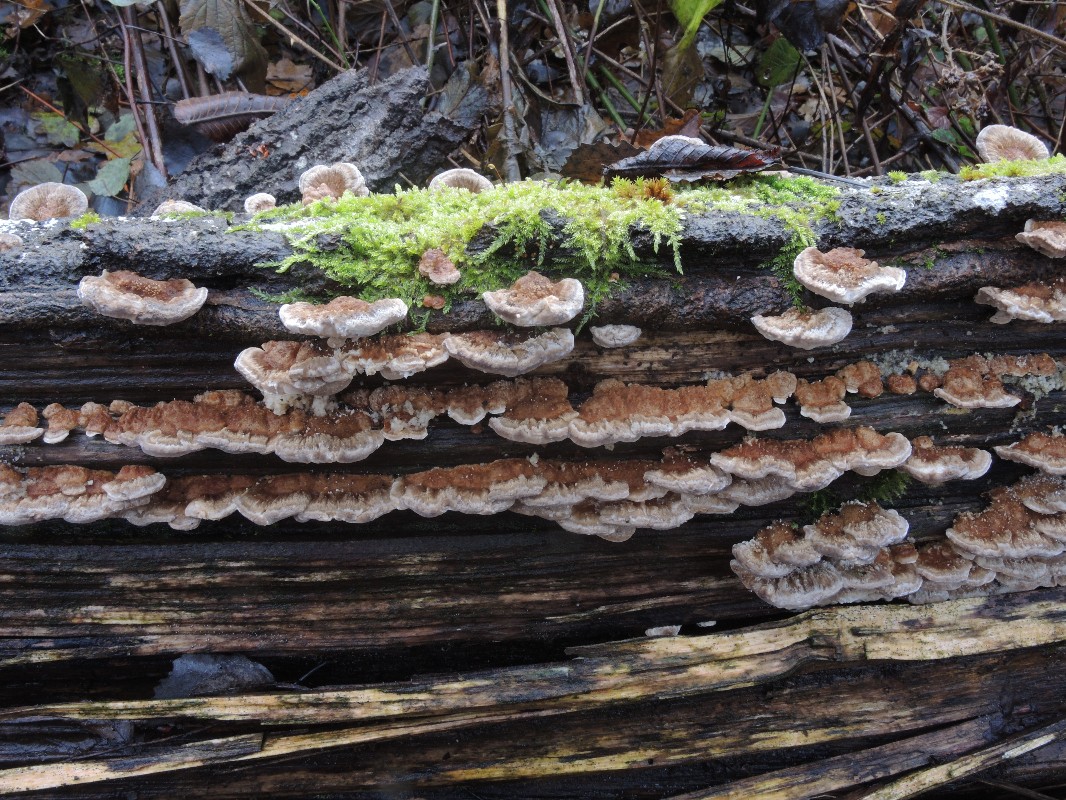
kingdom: Fungi
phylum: Basidiomycota
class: Agaricomycetes
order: Polyporales
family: Polyporaceae
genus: Trametes
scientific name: Trametes ochracea
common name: bæltet læderporesvamp
